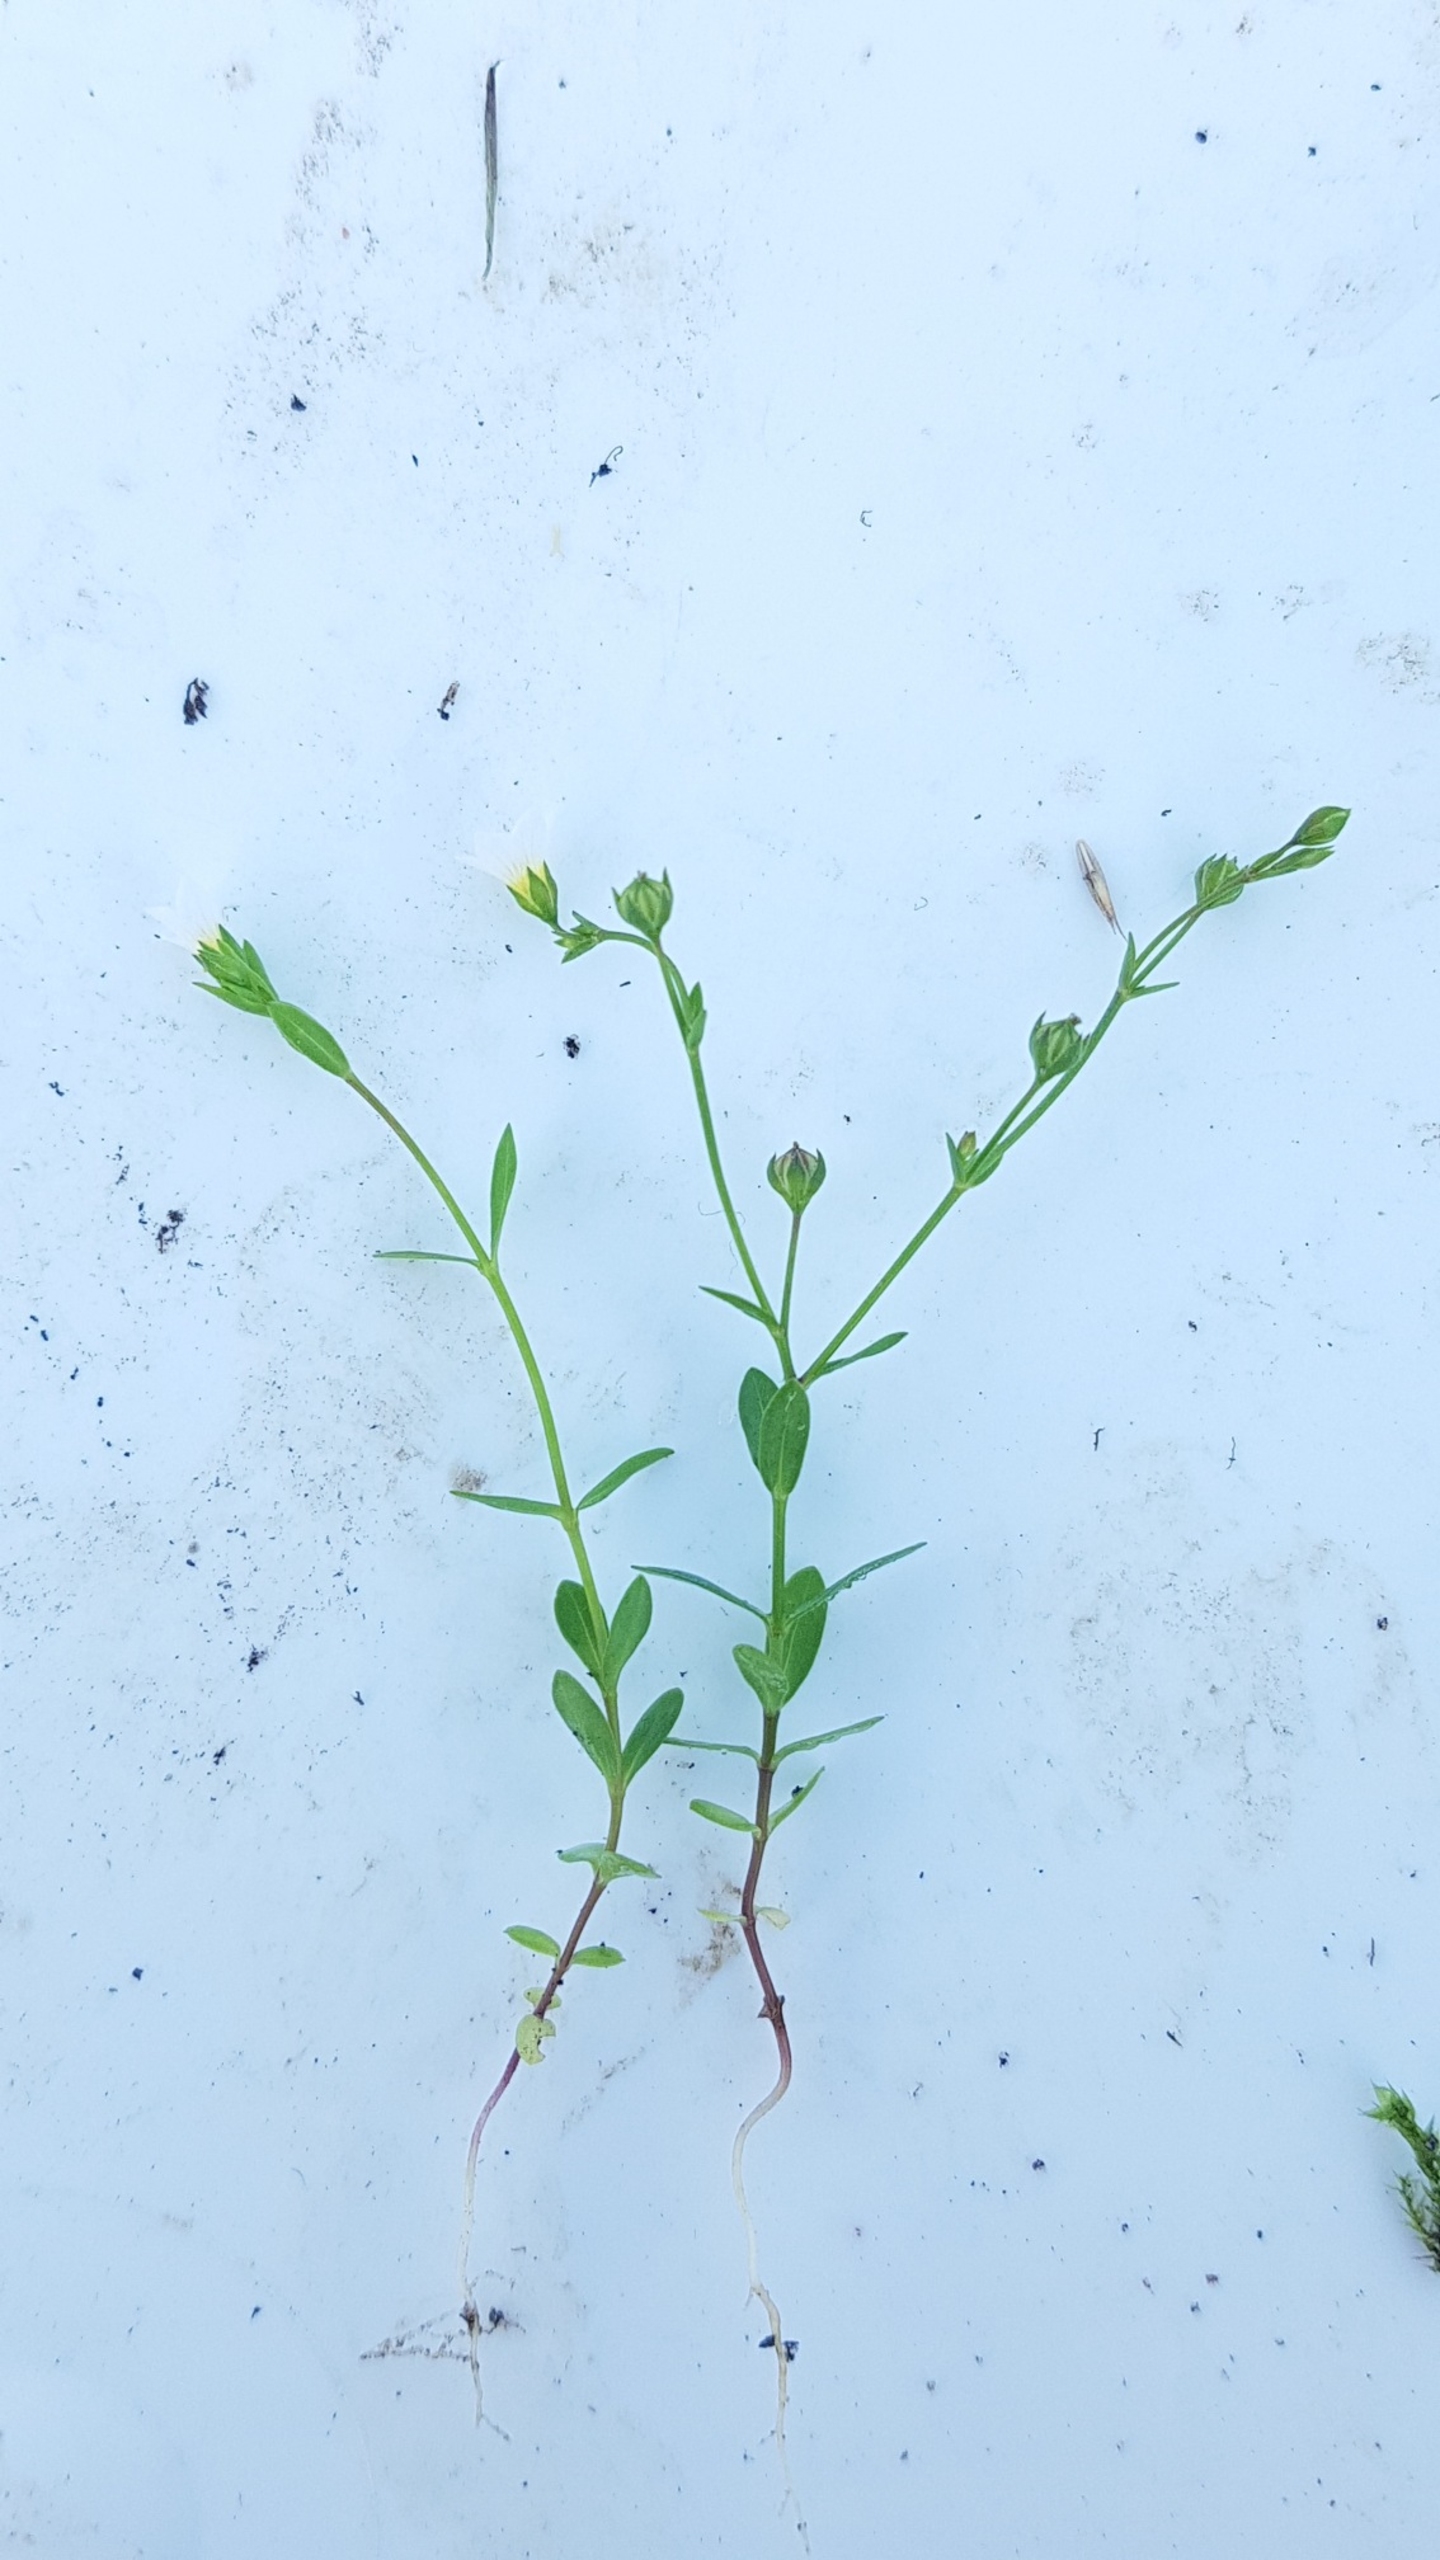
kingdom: Plantae
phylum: Tracheophyta
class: Magnoliopsida
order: Malpighiales
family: Linaceae
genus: Linum
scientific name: Linum catharticum
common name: Vild hør
